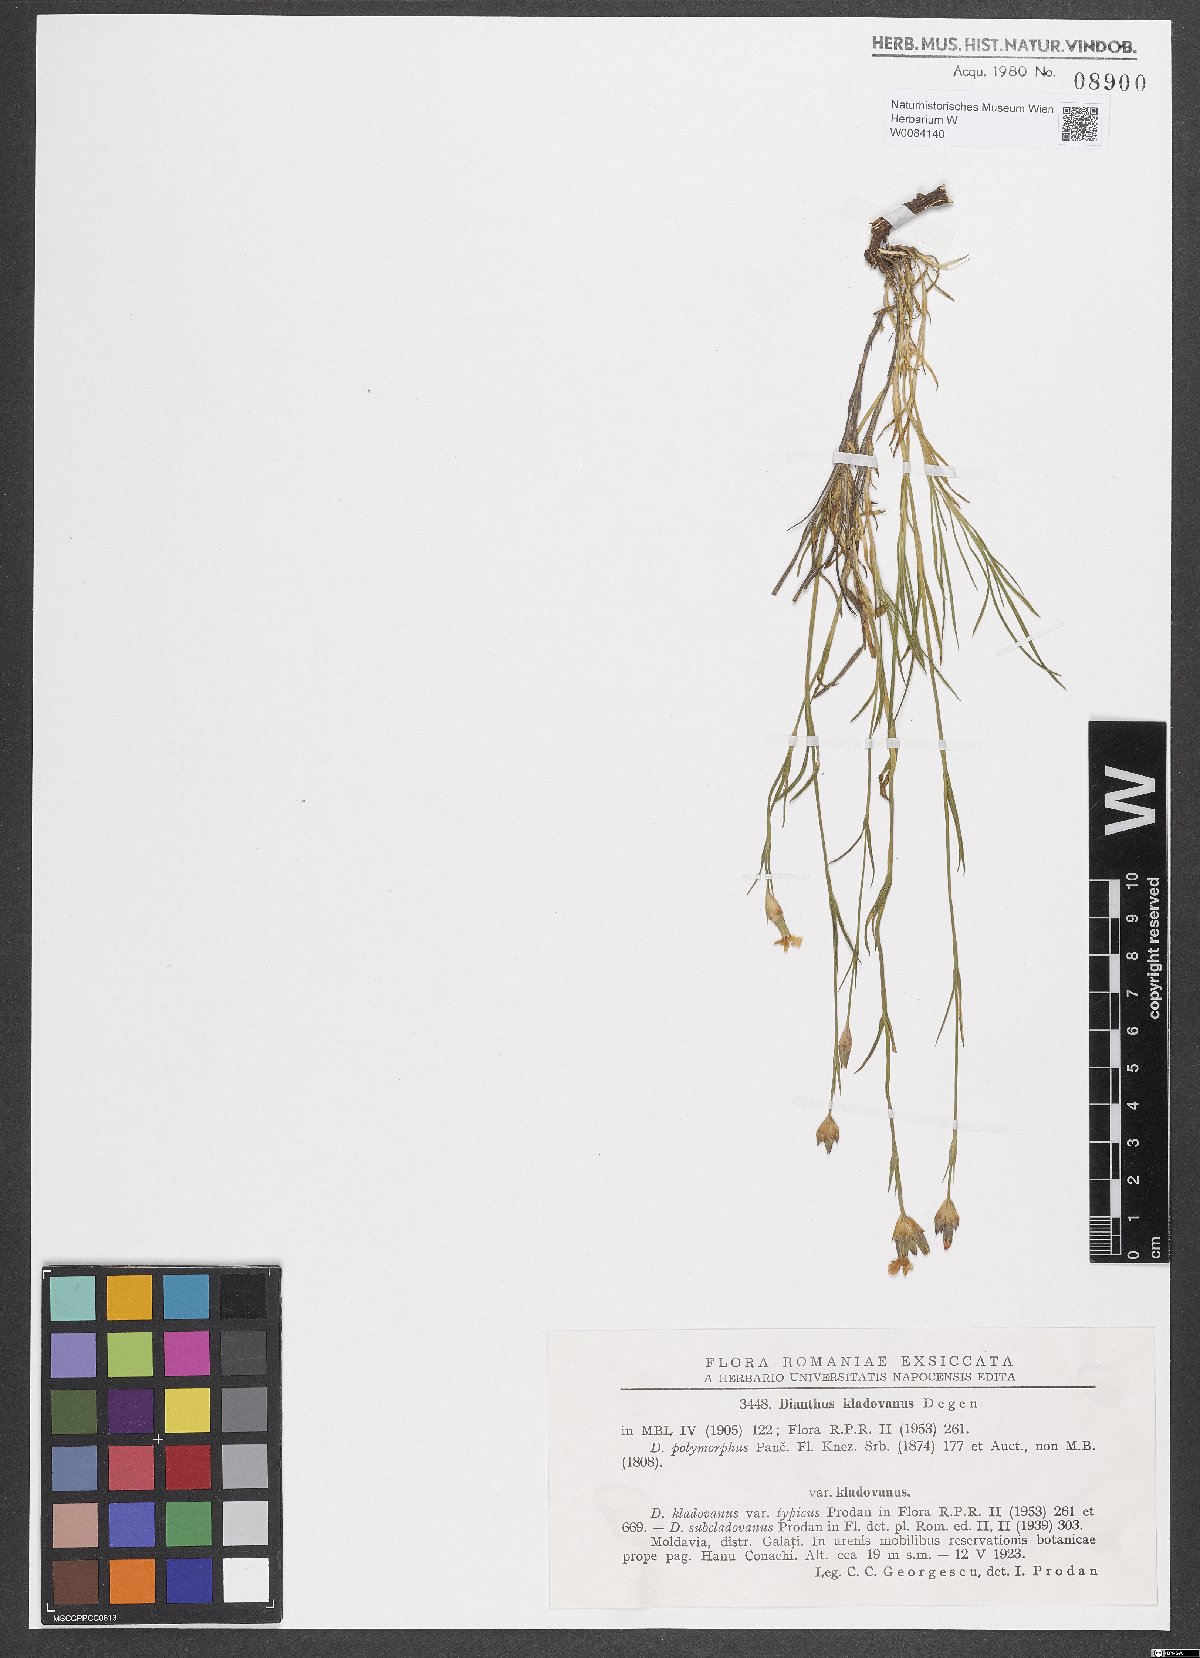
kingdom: Plantae
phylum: Tracheophyta
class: Magnoliopsida
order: Caryophyllales
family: Caryophyllaceae
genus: Dianthus
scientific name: Dianthus giganteiformis
